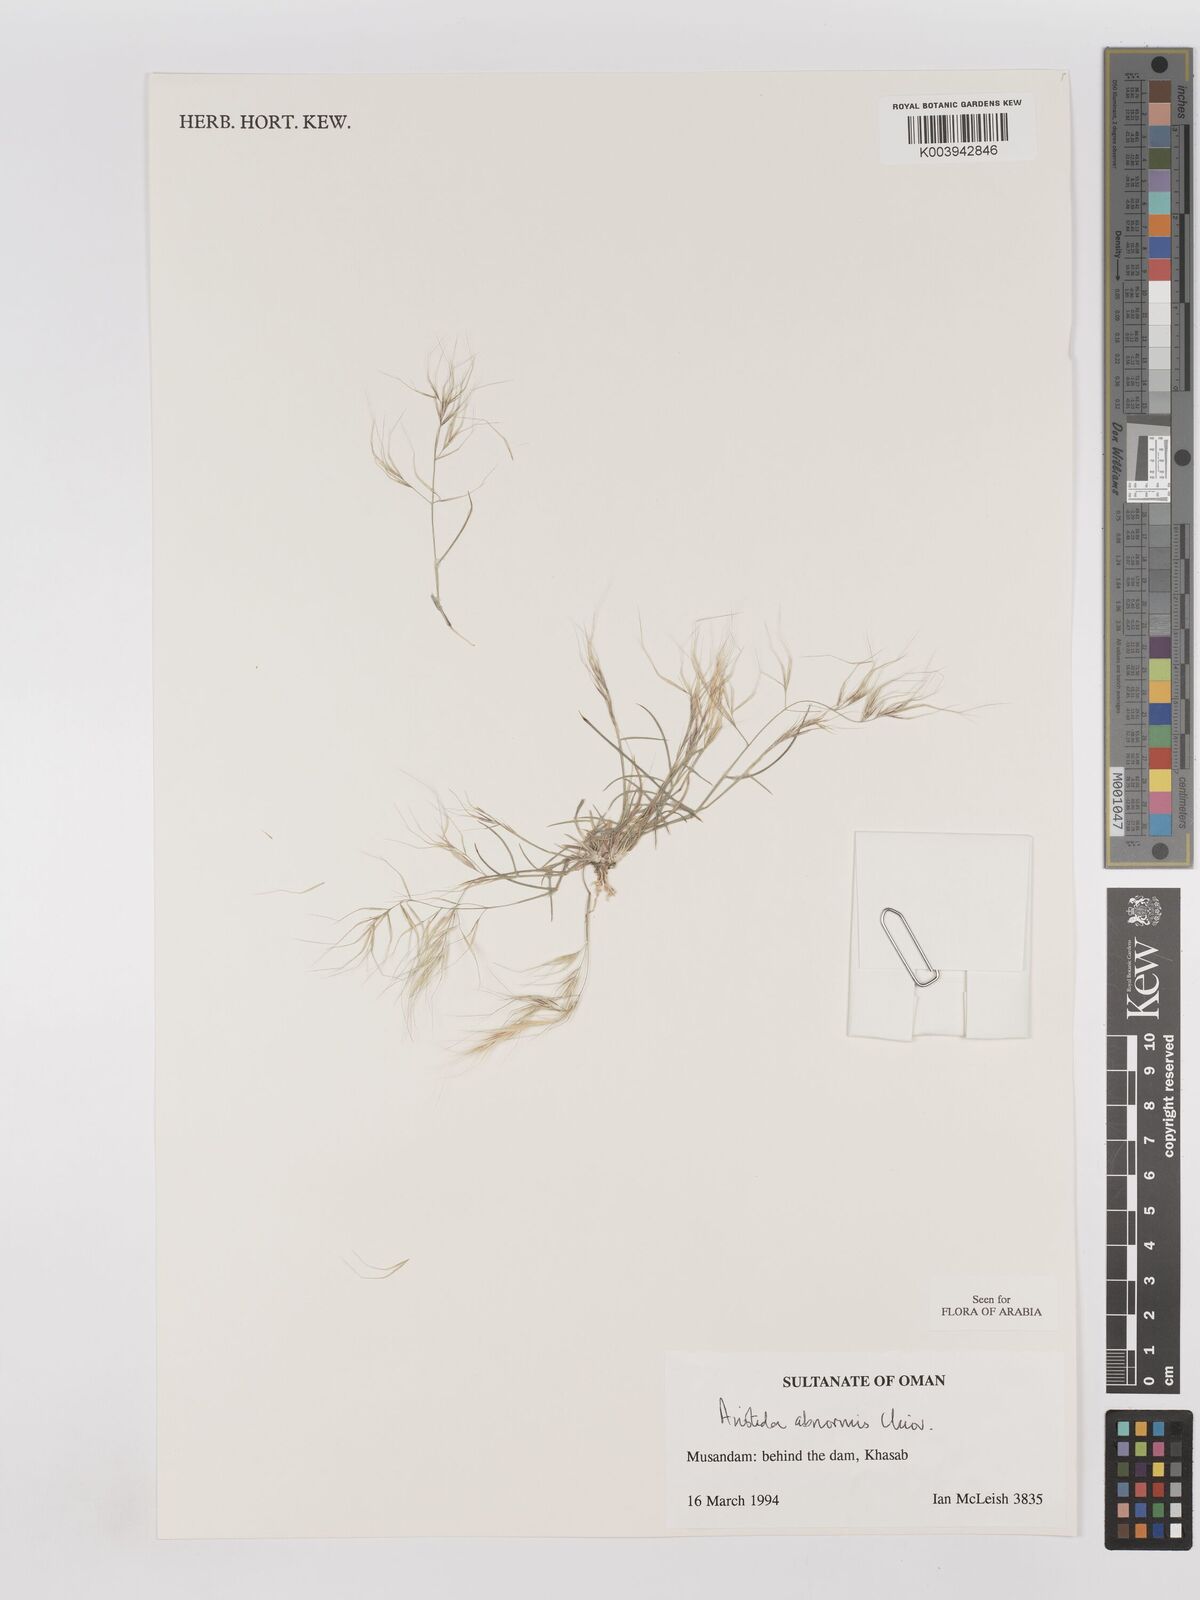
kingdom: Plantae
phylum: Tracheophyta
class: Liliopsida
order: Poales
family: Poaceae
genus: Aristida
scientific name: Aristida abnormis
